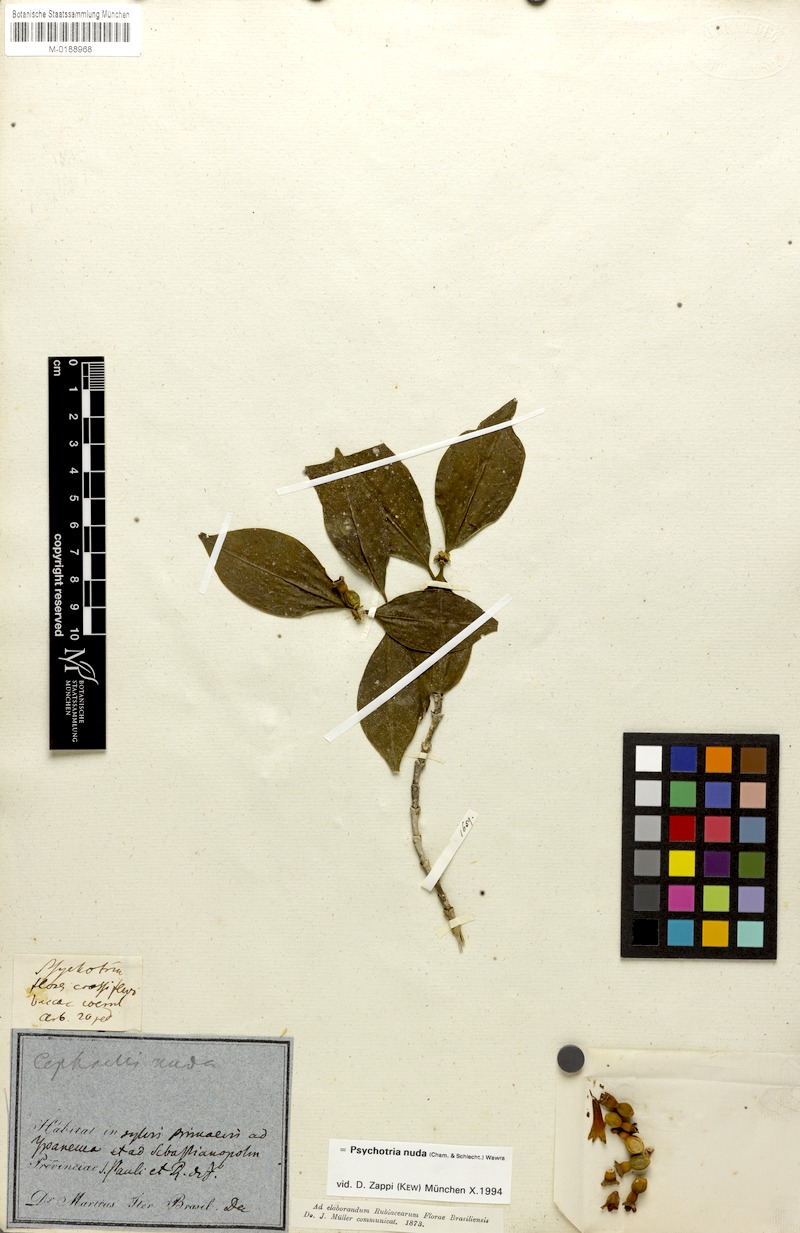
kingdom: Plantae
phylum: Tracheophyta
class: Magnoliopsida
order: Gentianales
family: Rubiaceae
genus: Psychotria
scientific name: Psychotria nuda
